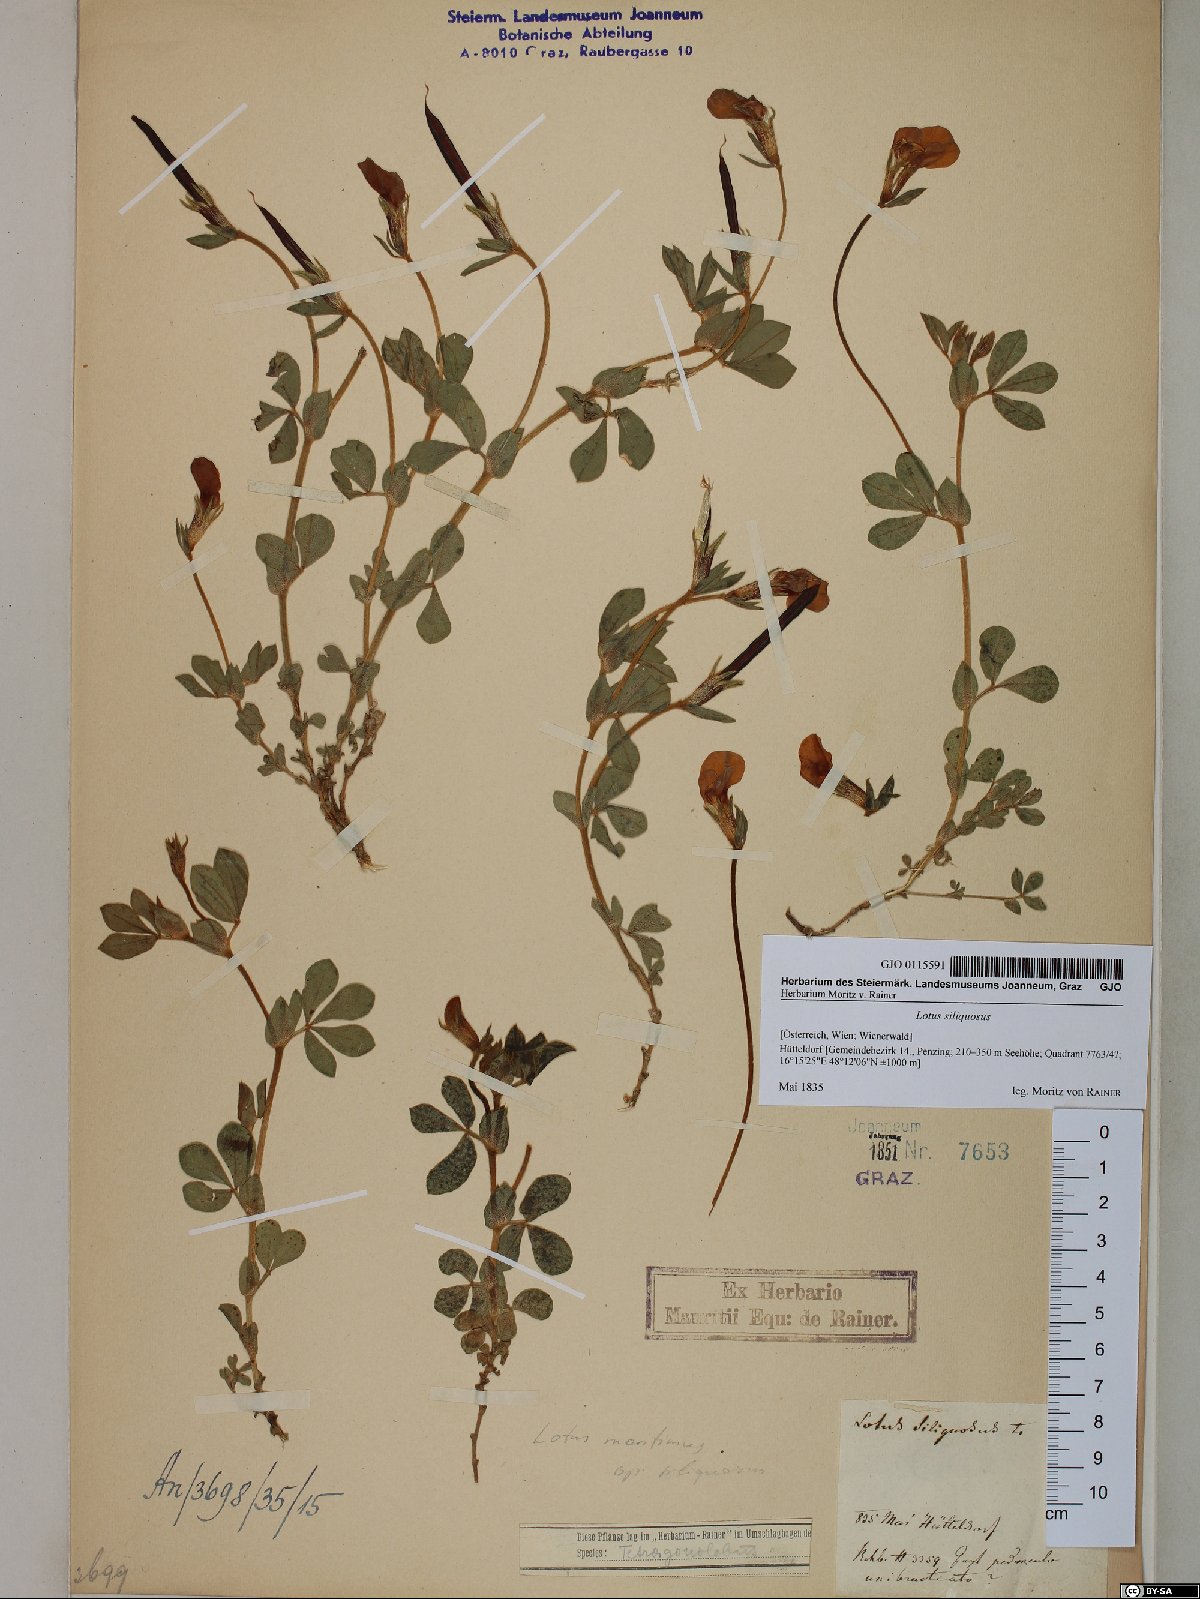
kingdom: Plantae
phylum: Tracheophyta
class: Magnoliopsida
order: Fabales
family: Fabaceae
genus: Lathyrus
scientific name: Lathyrus inconspicuus
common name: Inconspicuous pea
